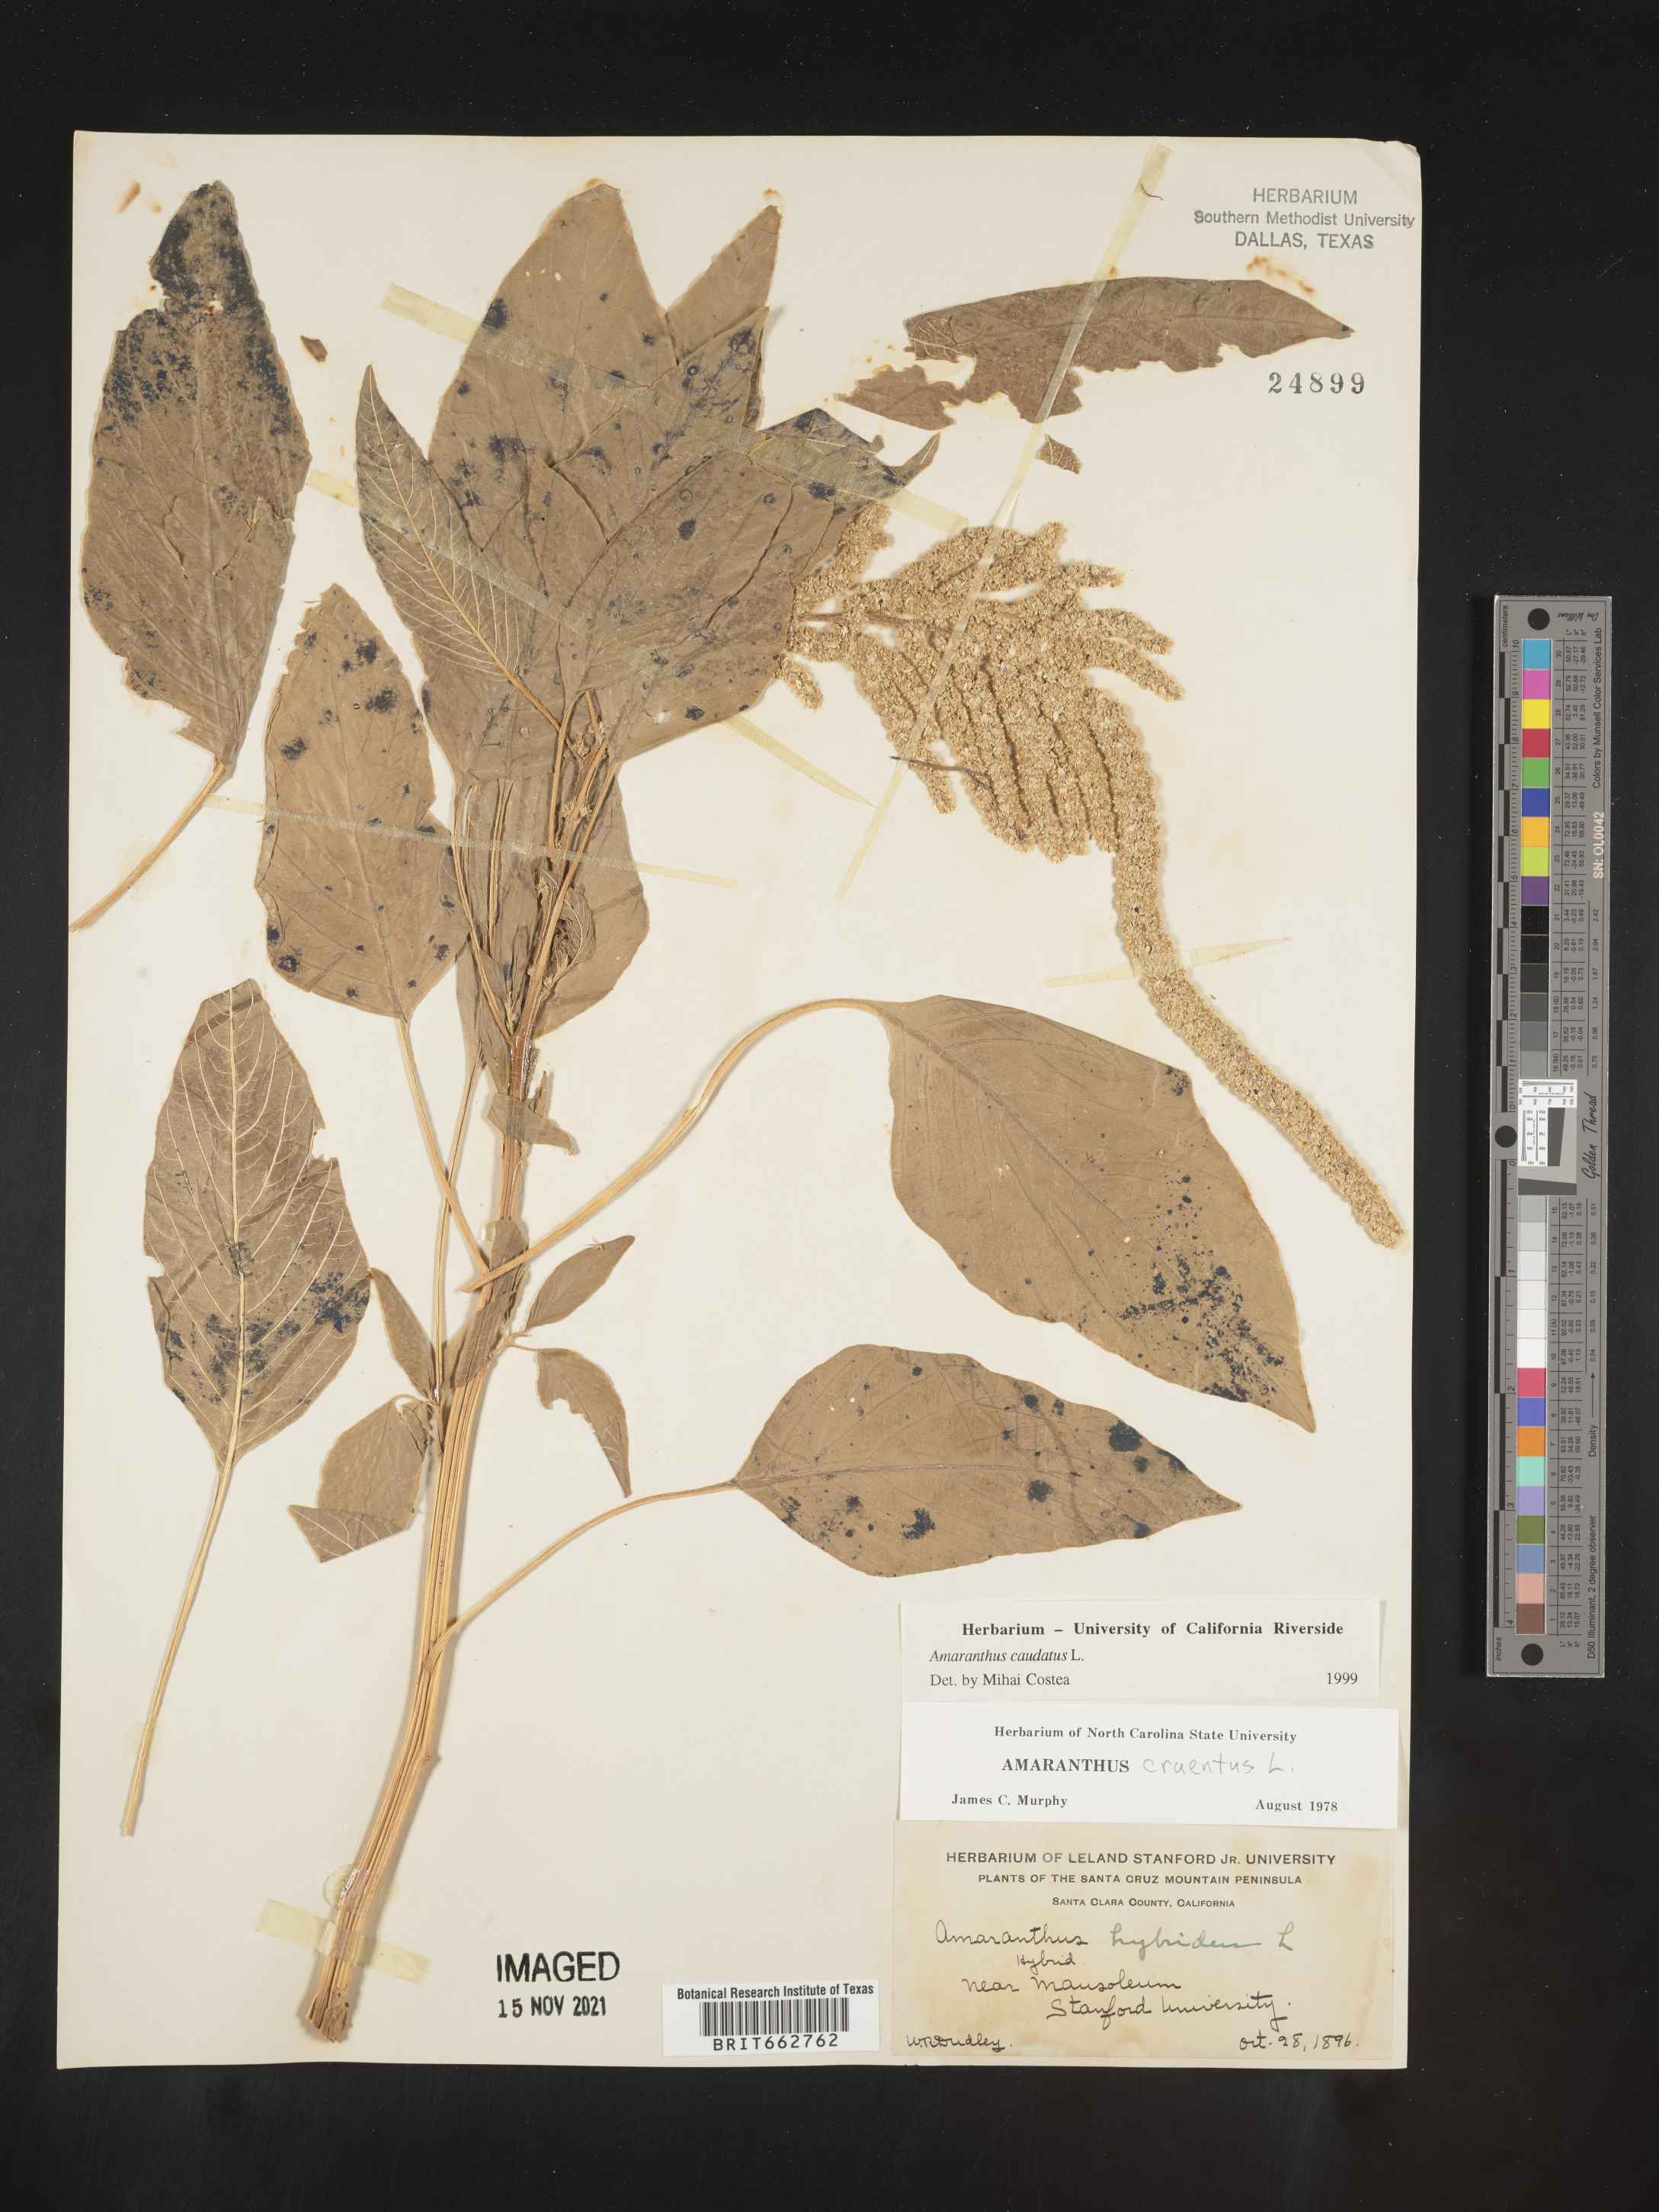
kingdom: Plantae
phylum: Tracheophyta
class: Magnoliopsida
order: Caryophyllales
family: Amaranthaceae
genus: Amaranthus
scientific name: Amaranthus cannabinus
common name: Salt-marsh water-hemp
